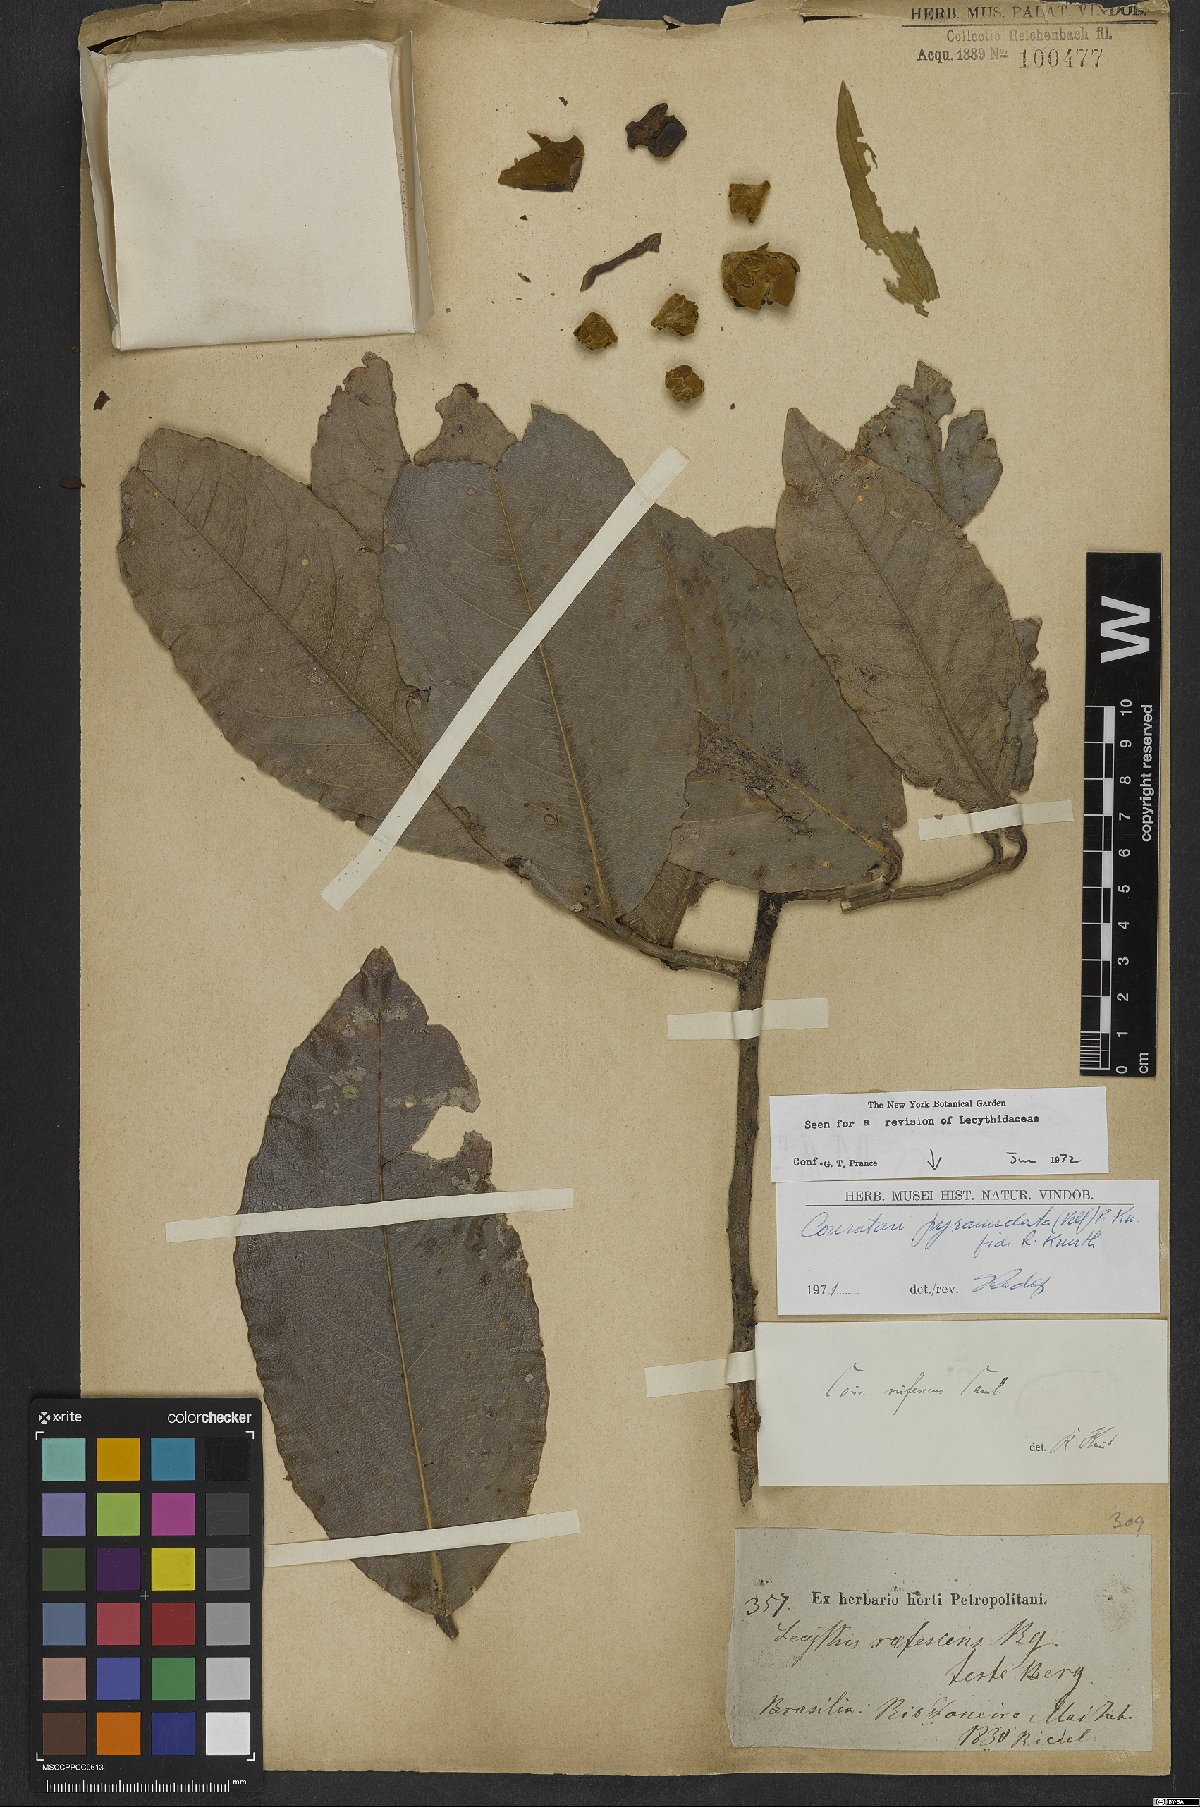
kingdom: Plantae
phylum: Tracheophyta
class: Magnoliopsida
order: Ericales
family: Lecythidaceae
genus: Couratari
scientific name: Couratari pyramidata
